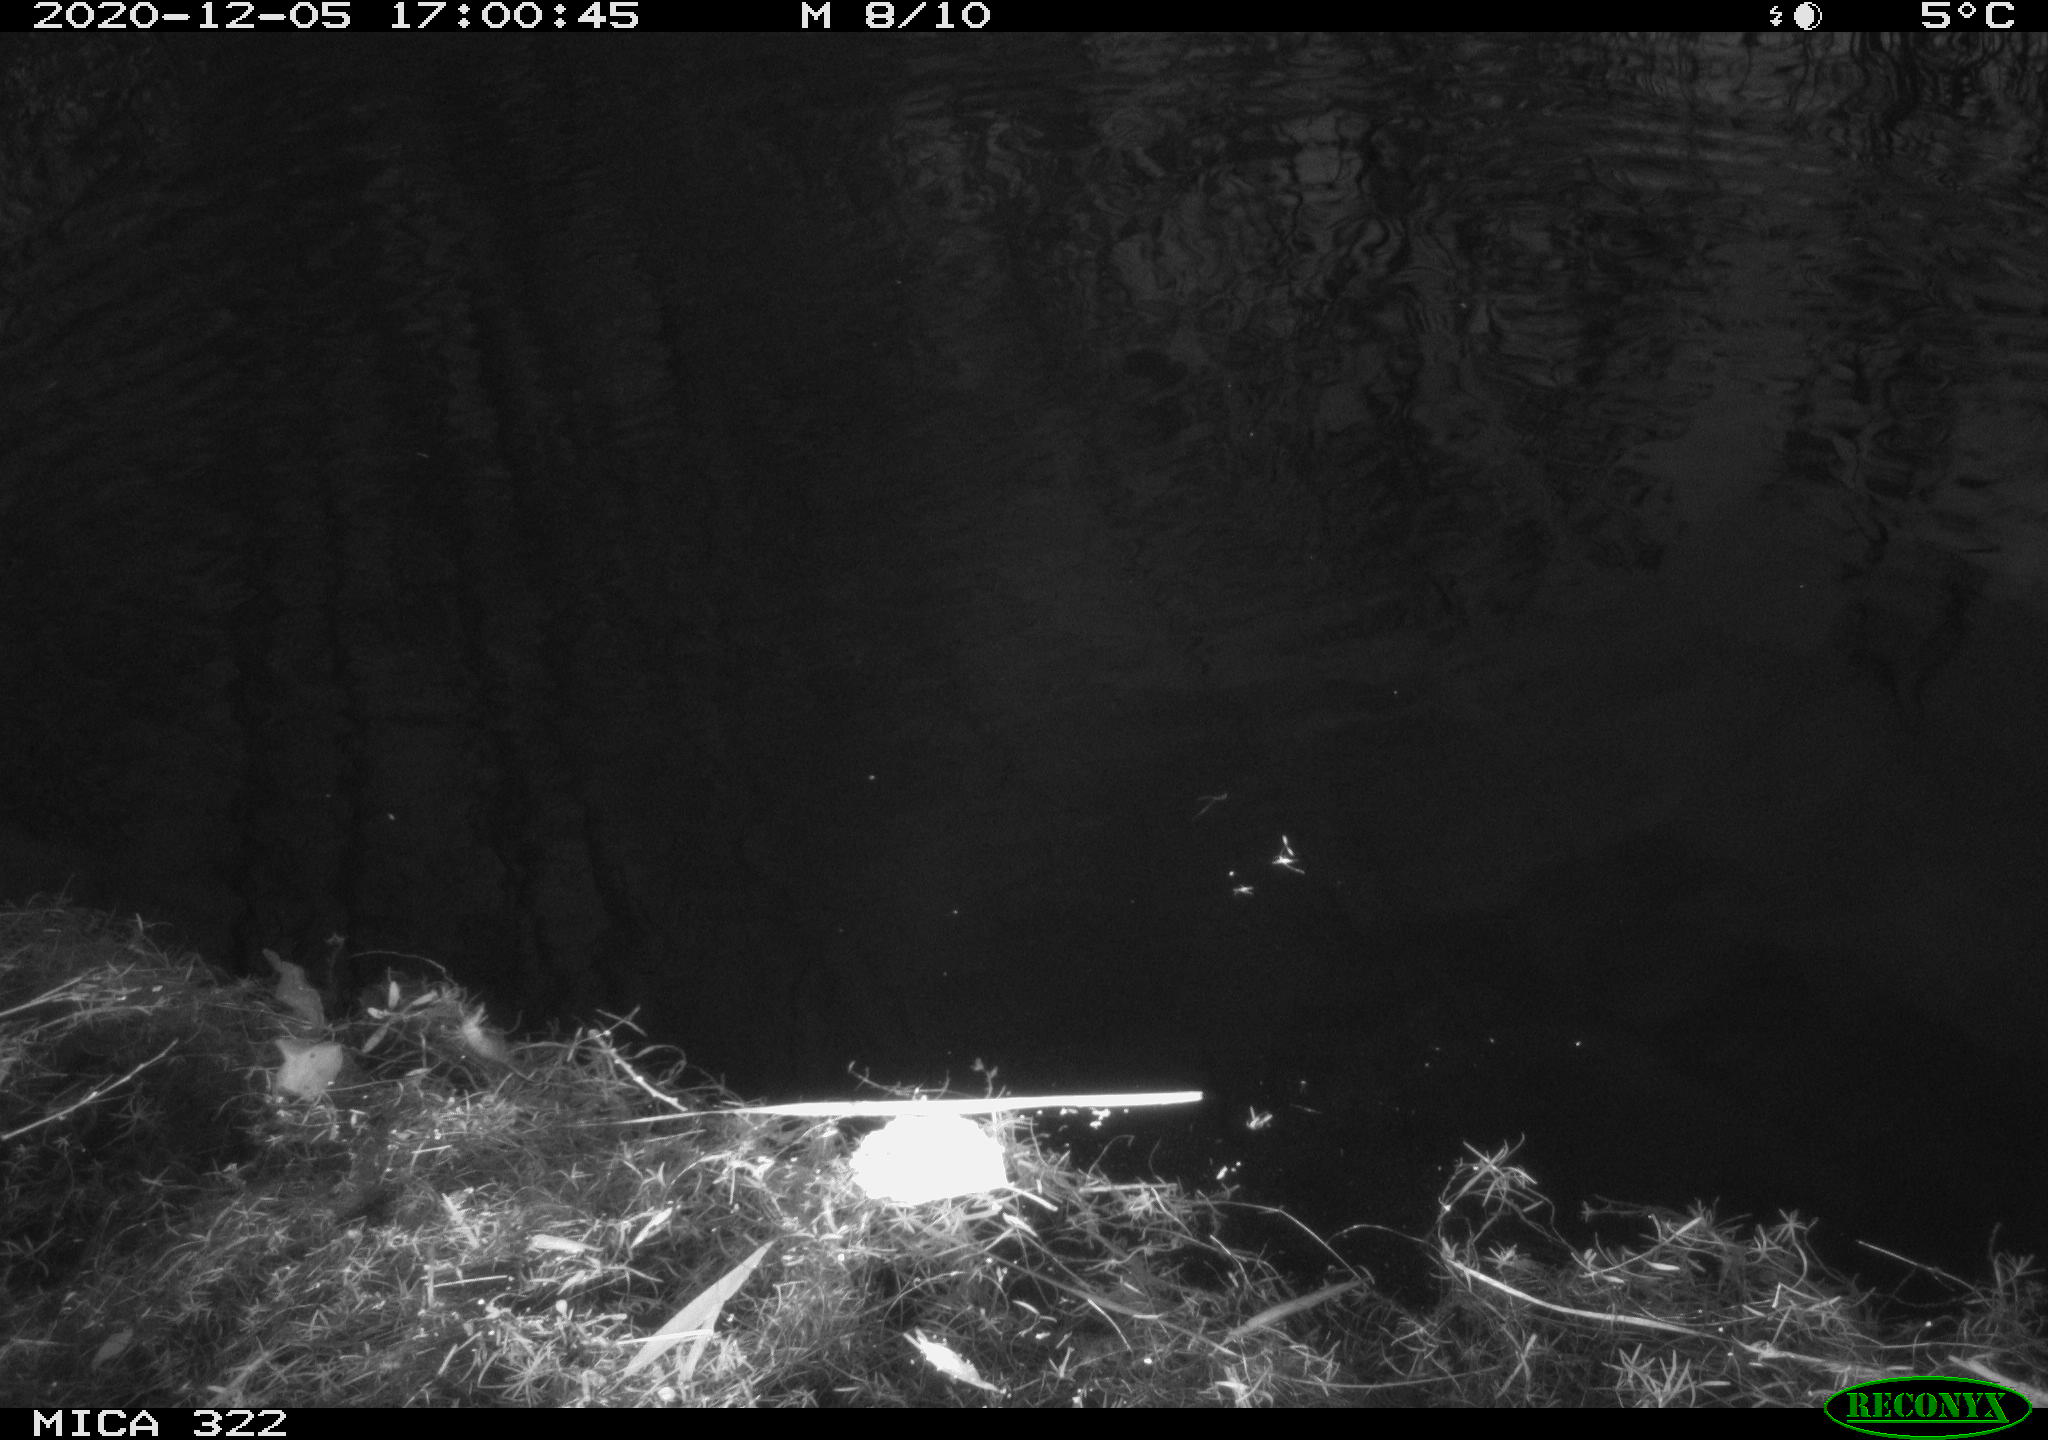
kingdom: Animalia
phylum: Chordata
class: Mammalia
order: Rodentia
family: Muridae
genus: Rattus
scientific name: Rattus norvegicus
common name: Brown rat
